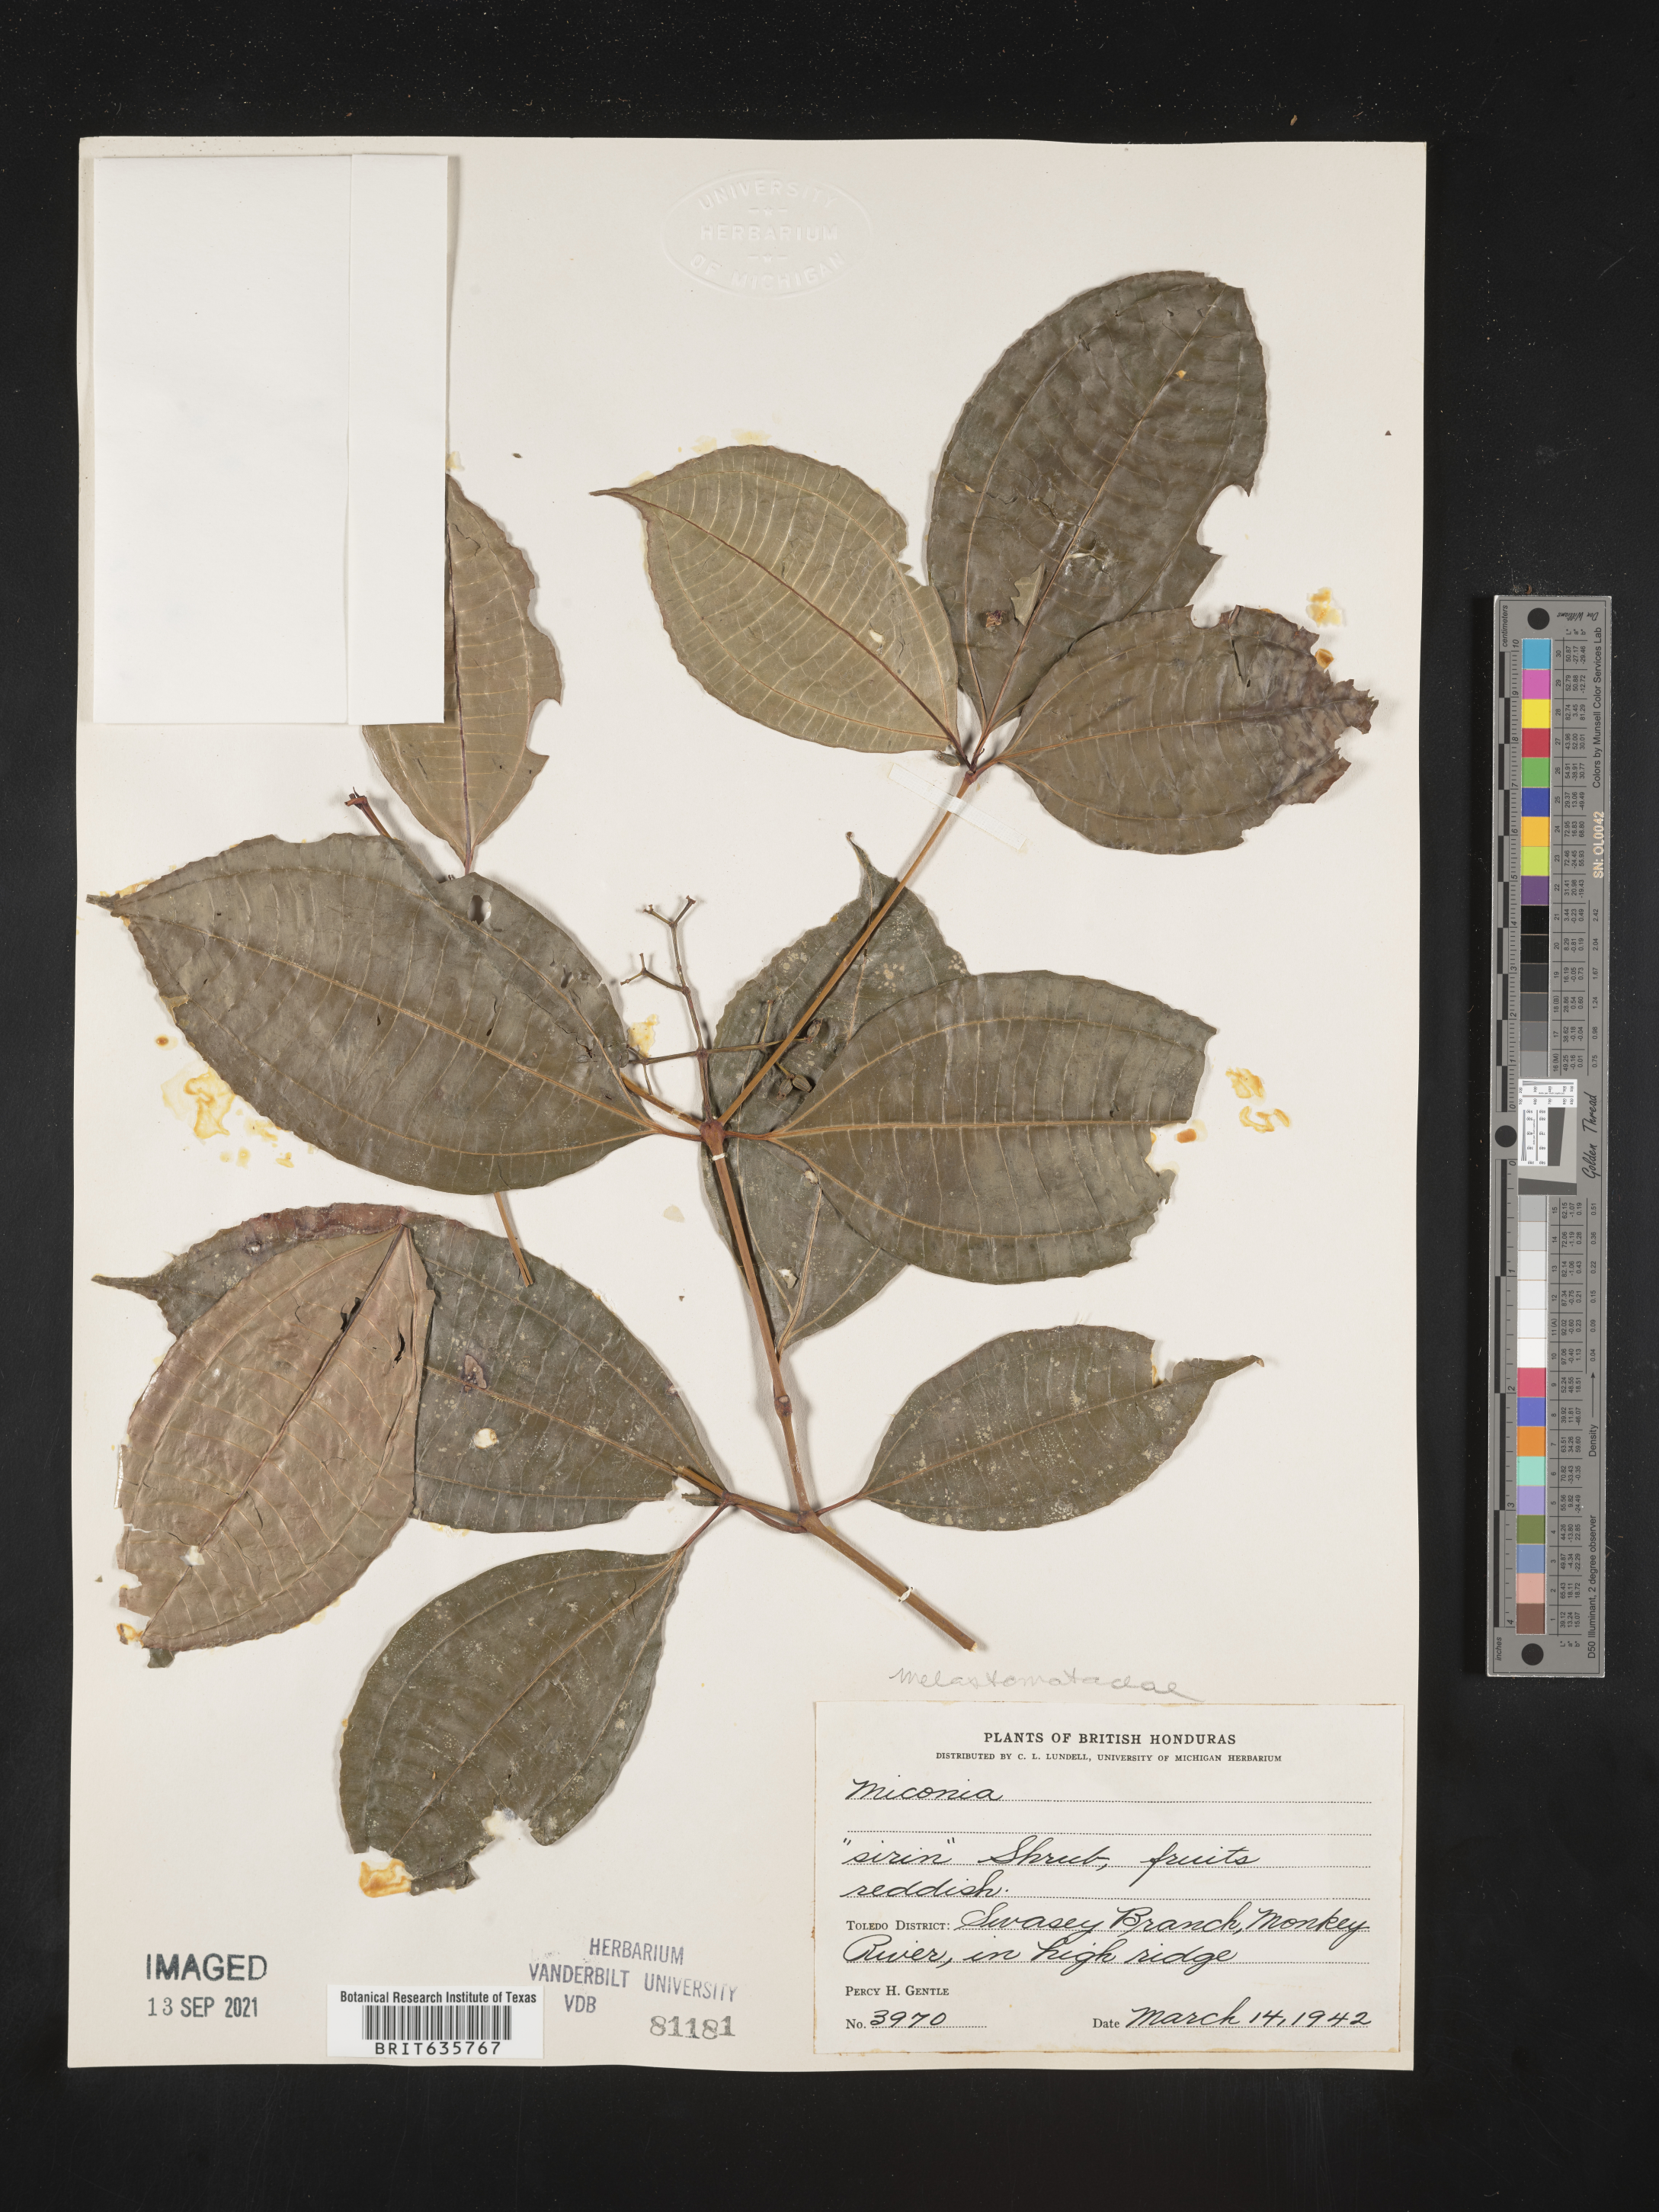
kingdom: Plantae
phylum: Tracheophyta
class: Magnoliopsida
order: Myrtales
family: Melastomataceae
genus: Miconia
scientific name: Miconia
